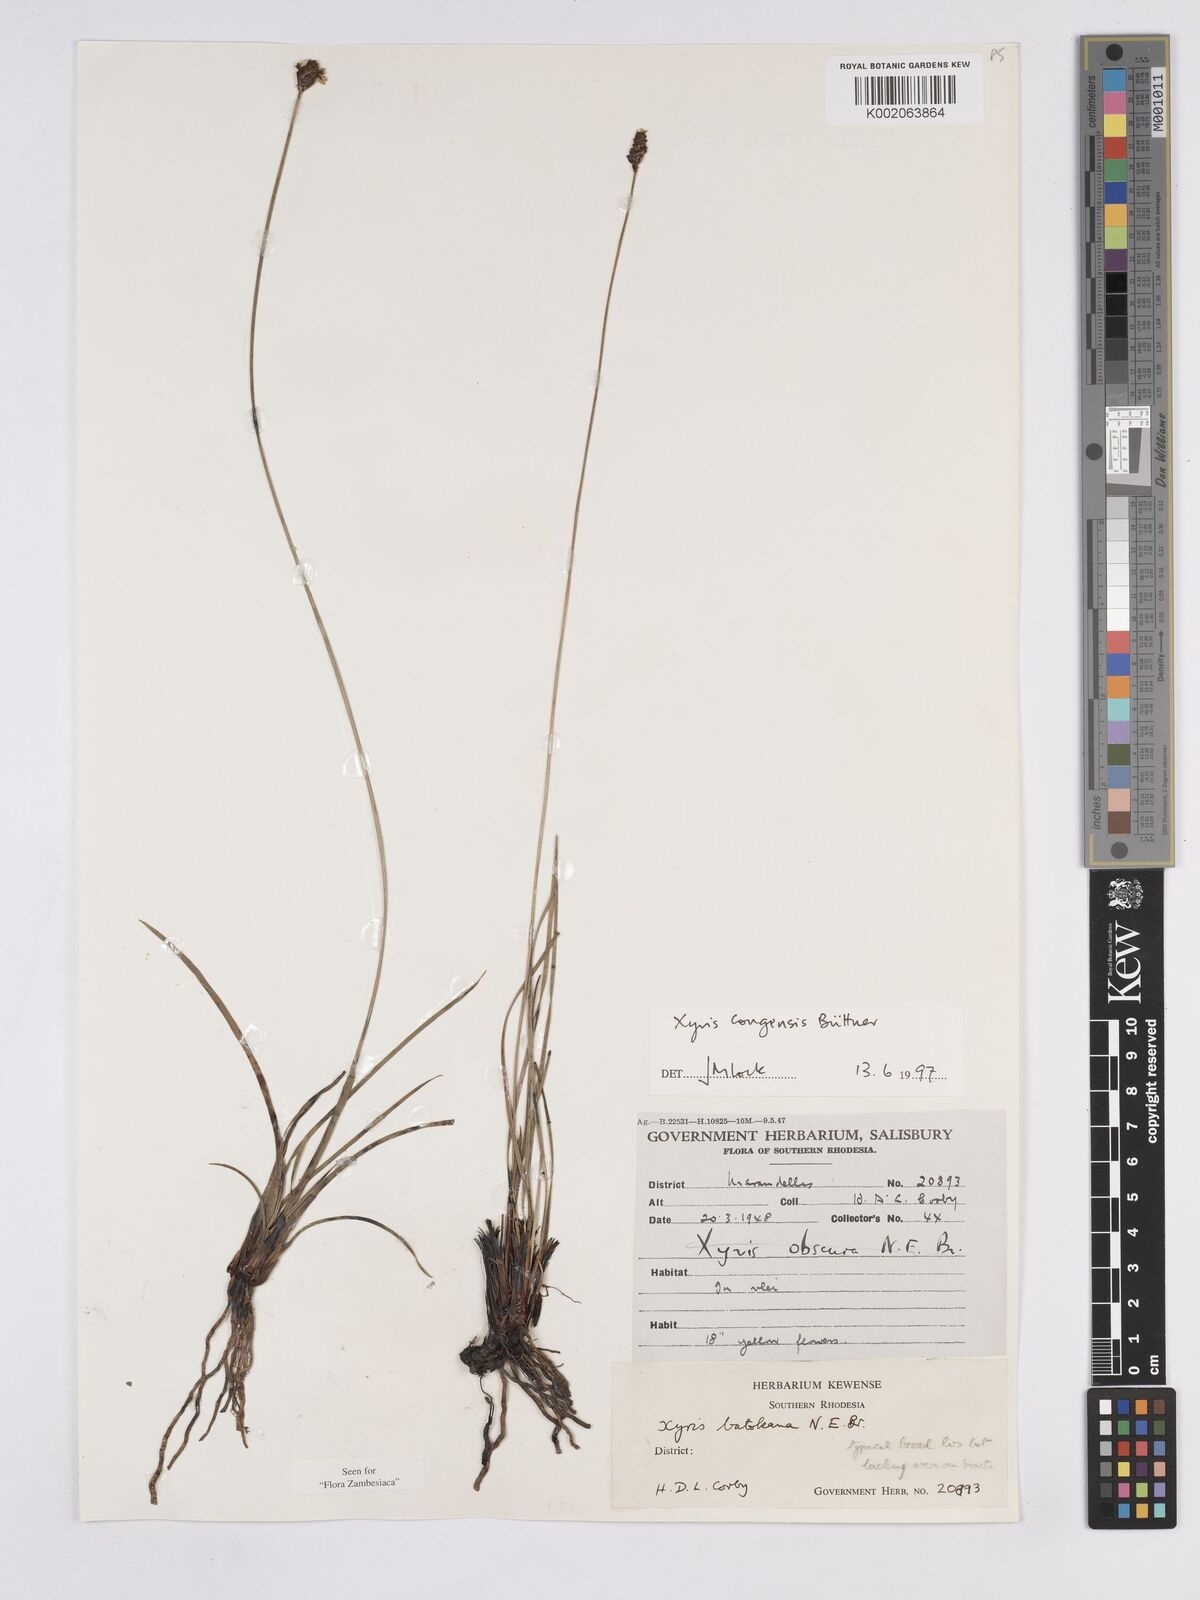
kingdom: Plantae
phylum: Tracheophyta
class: Liliopsida
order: Poales
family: Xyridaceae
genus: Xyris
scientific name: Xyris congensis
